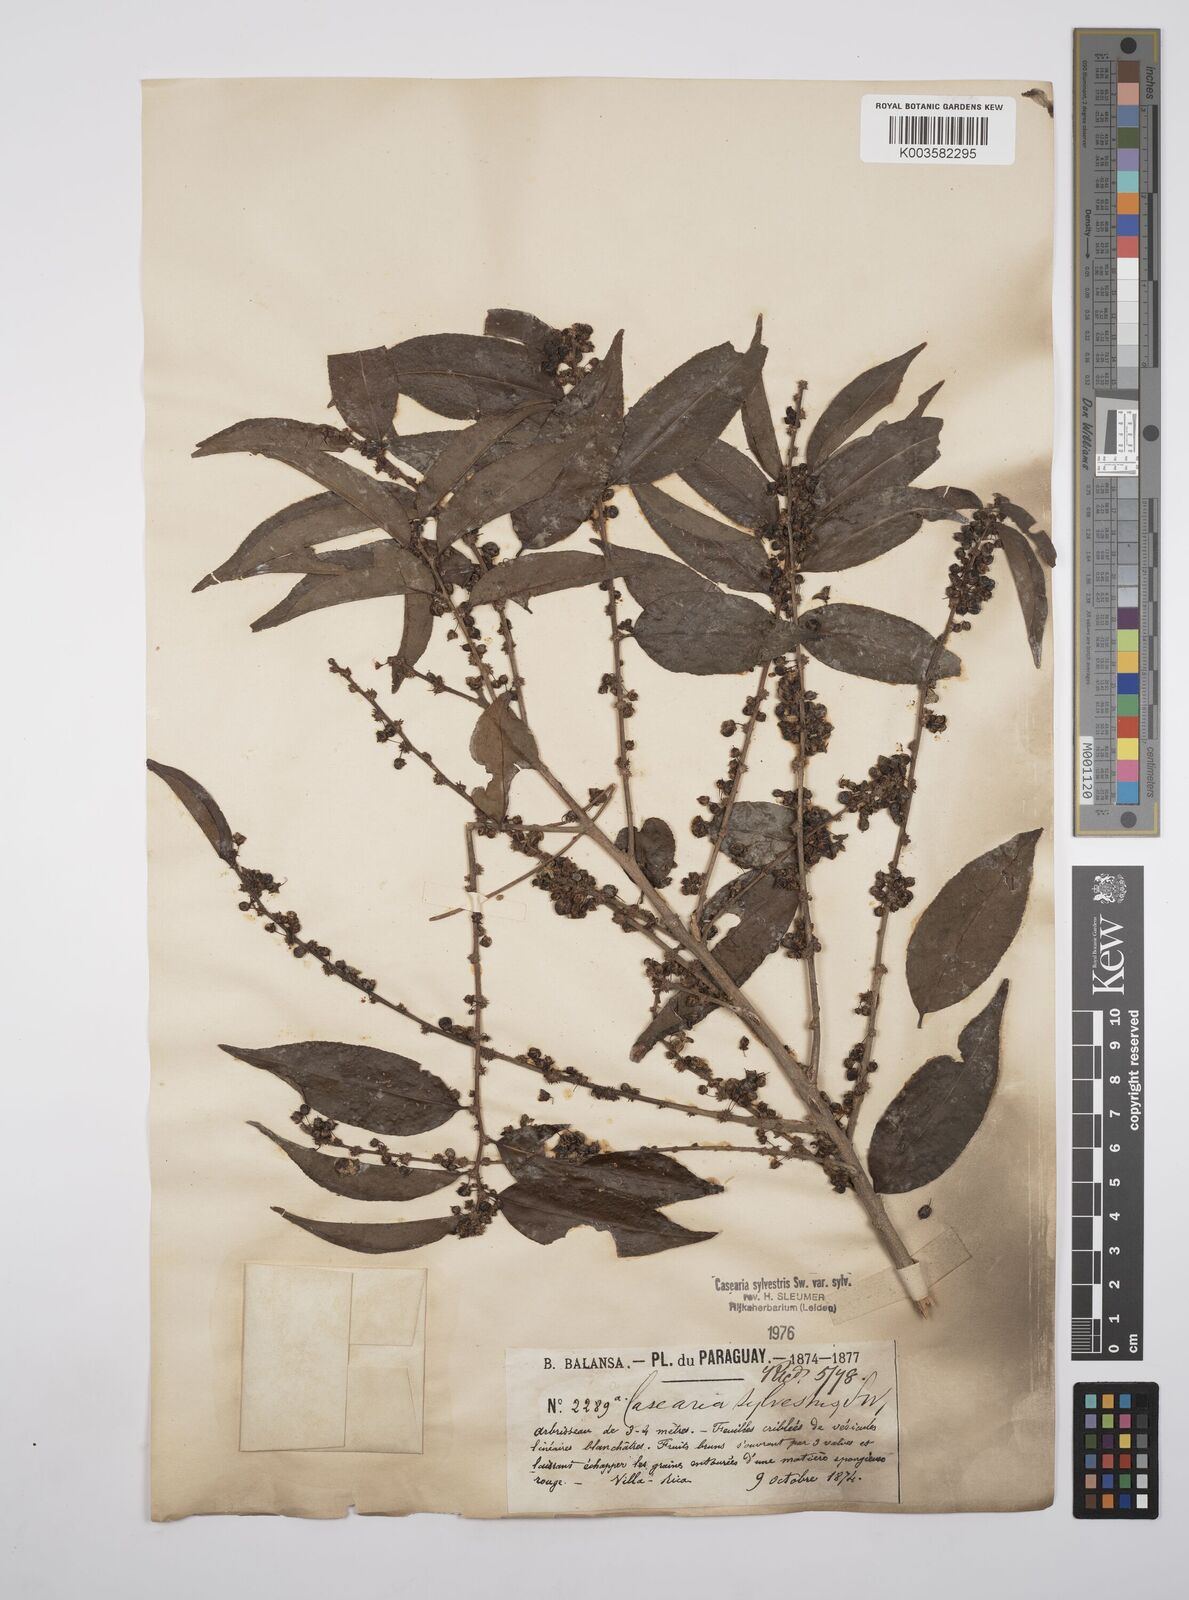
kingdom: Plantae
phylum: Tracheophyta
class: Magnoliopsida
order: Malpighiales
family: Salicaceae
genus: Casearia
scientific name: Casearia sylvestris
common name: Wild sage
